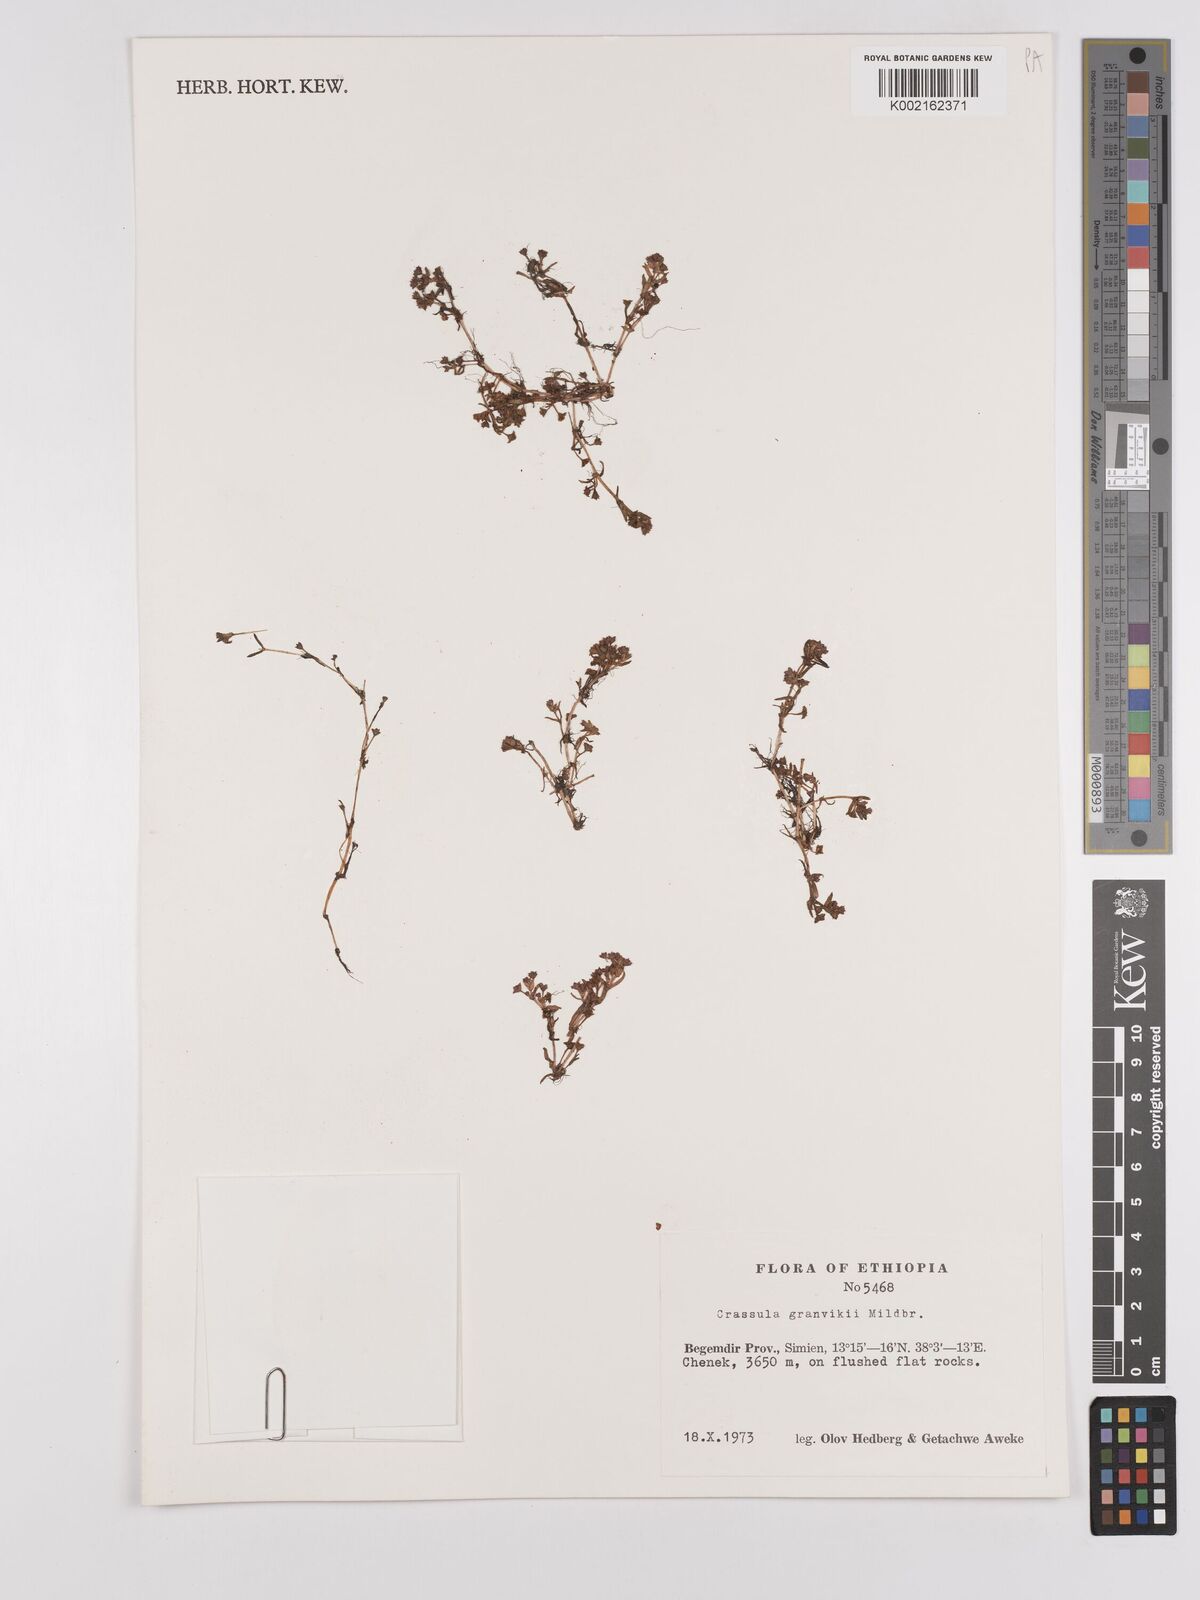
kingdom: Plantae
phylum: Tracheophyta
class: Magnoliopsida
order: Saxifragales
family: Crassulaceae
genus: Crassula
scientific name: Crassula granvikii
